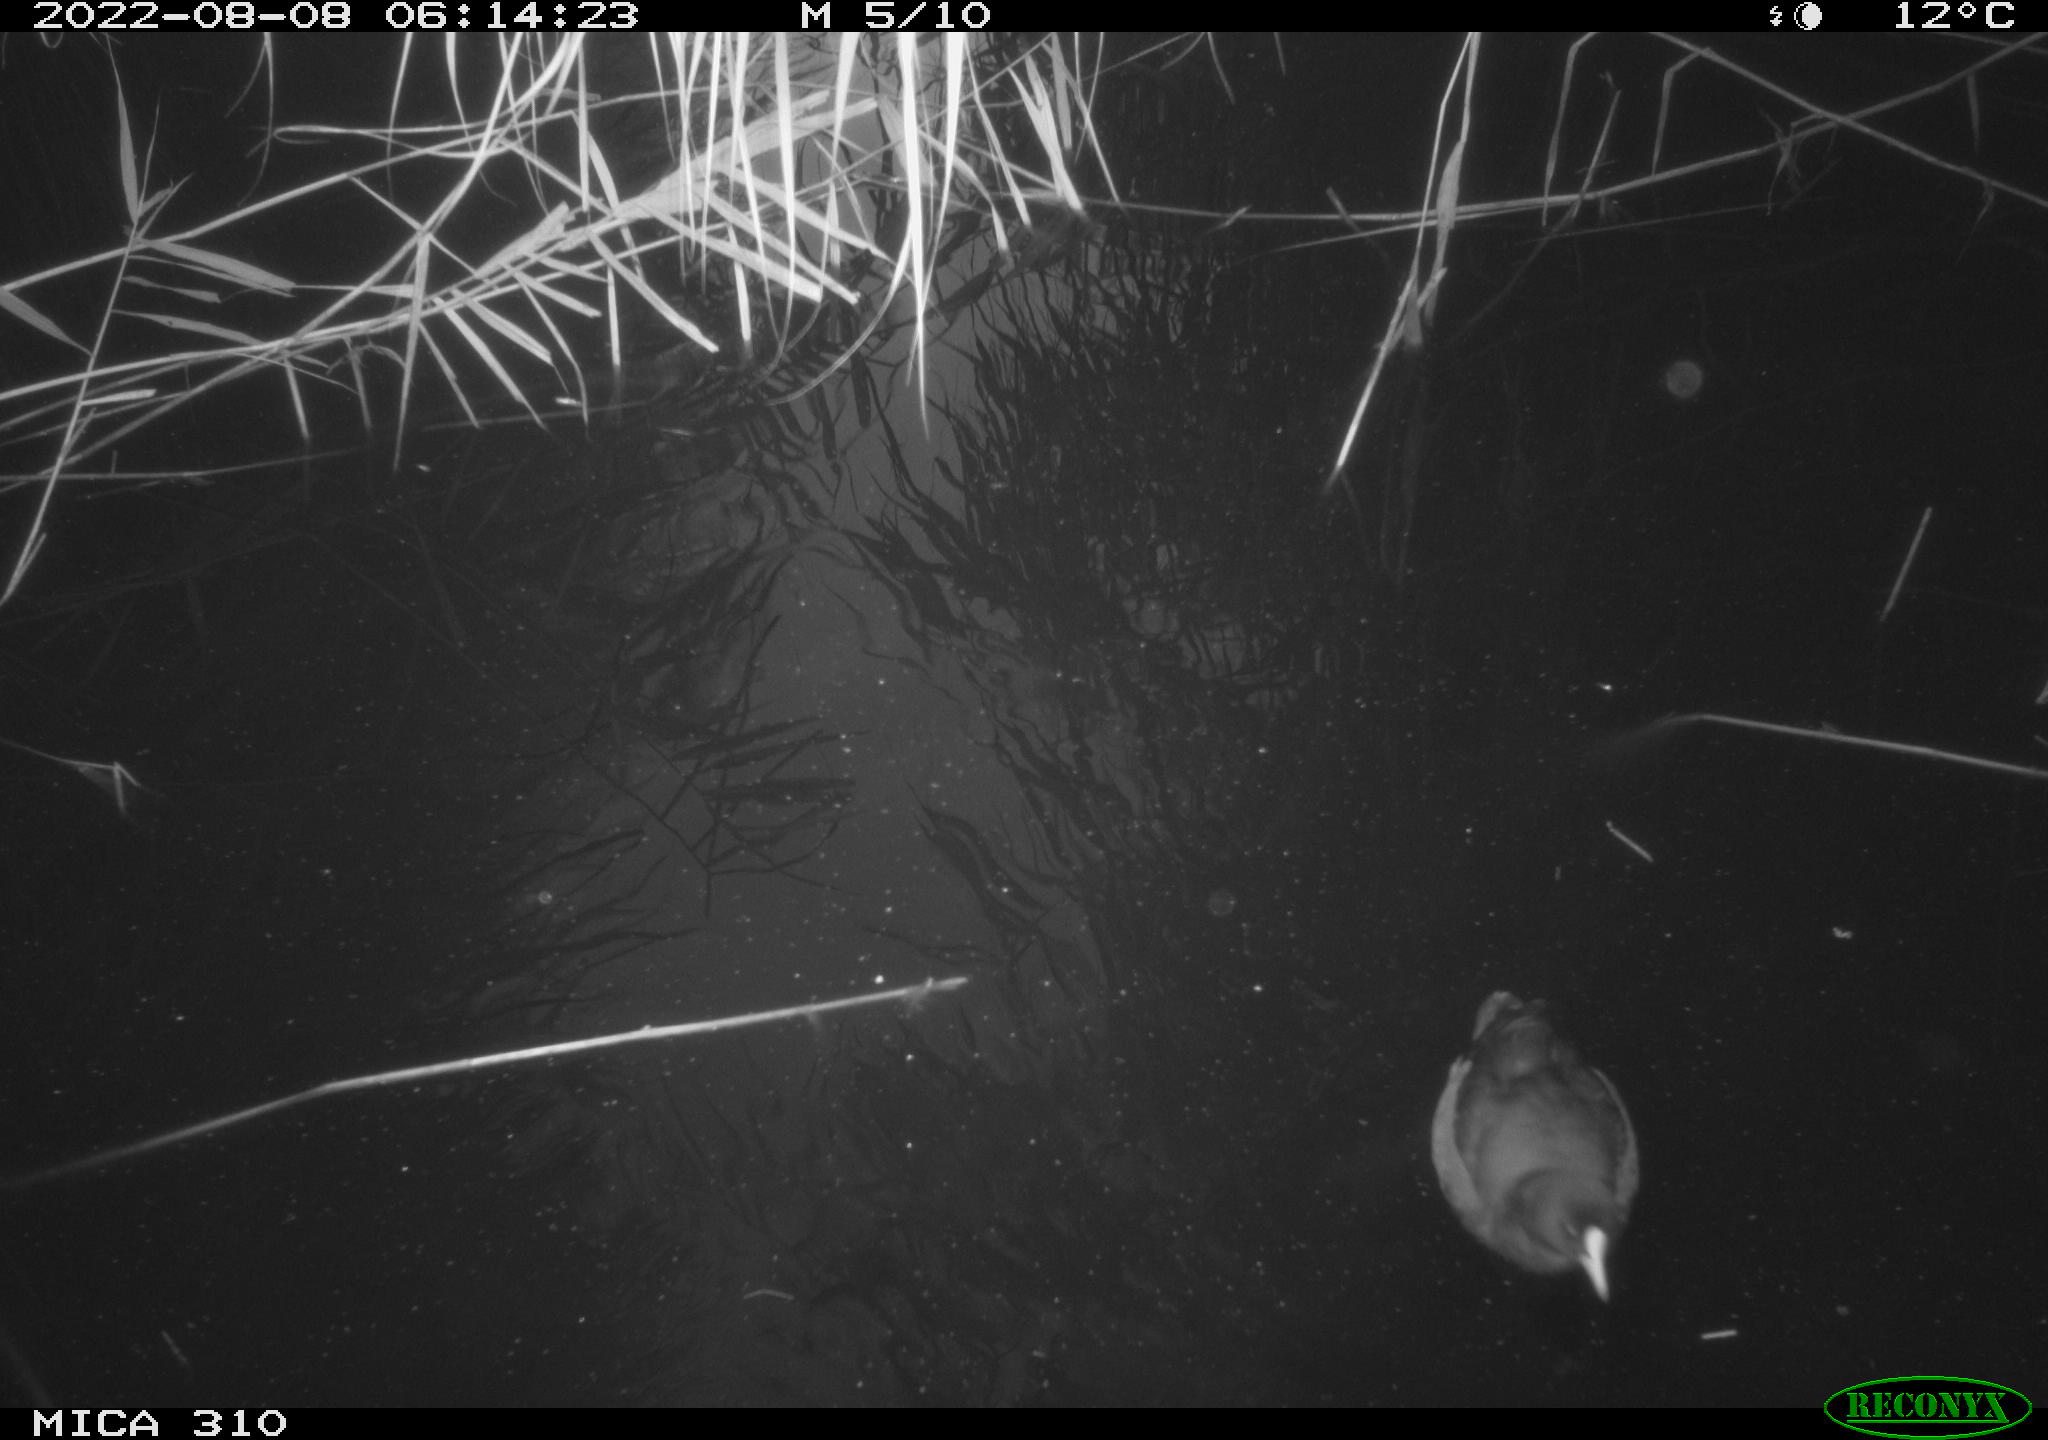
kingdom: Animalia
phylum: Chordata
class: Aves
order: Gruiformes
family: Rallidae
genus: Gallinula
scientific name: Gallinula chloropus
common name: Common moorhen
